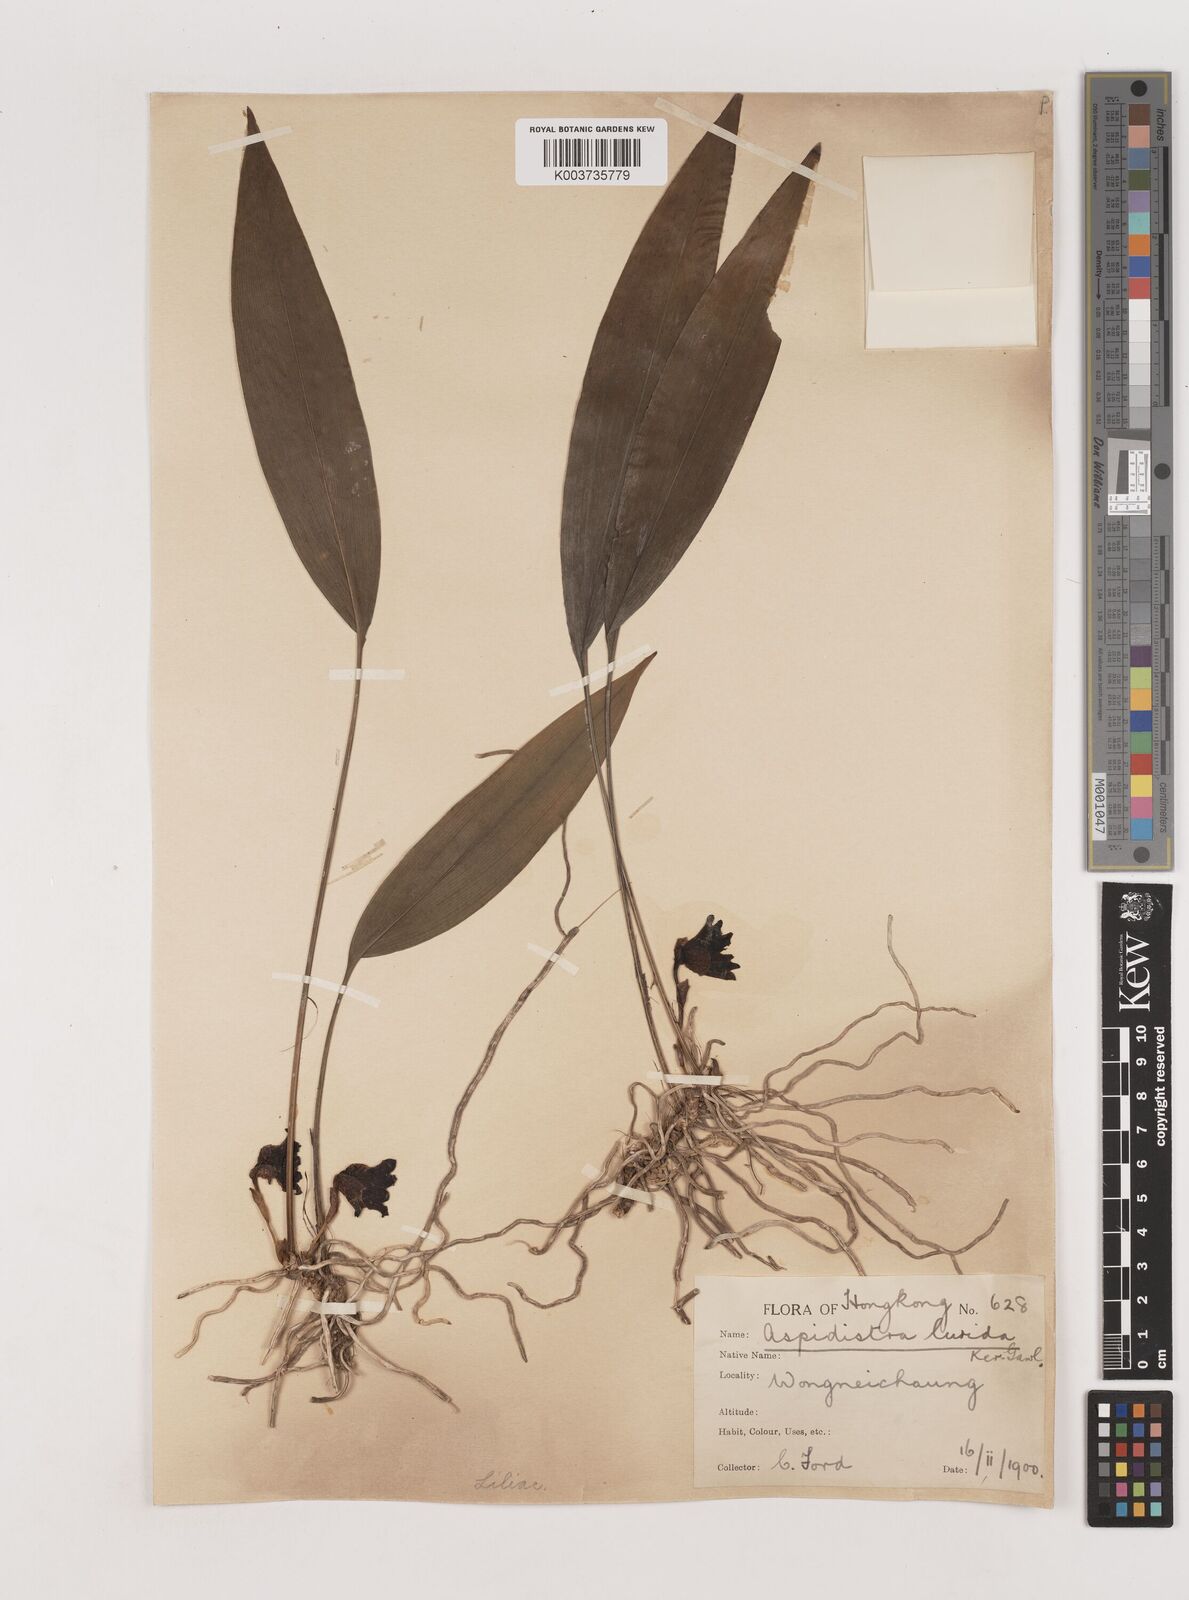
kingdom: Plantae
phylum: Tracheophyta
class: Liliopsida
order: Asparagales
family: Asparagaceae
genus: Aspidistra
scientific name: Aspidistra lurida
